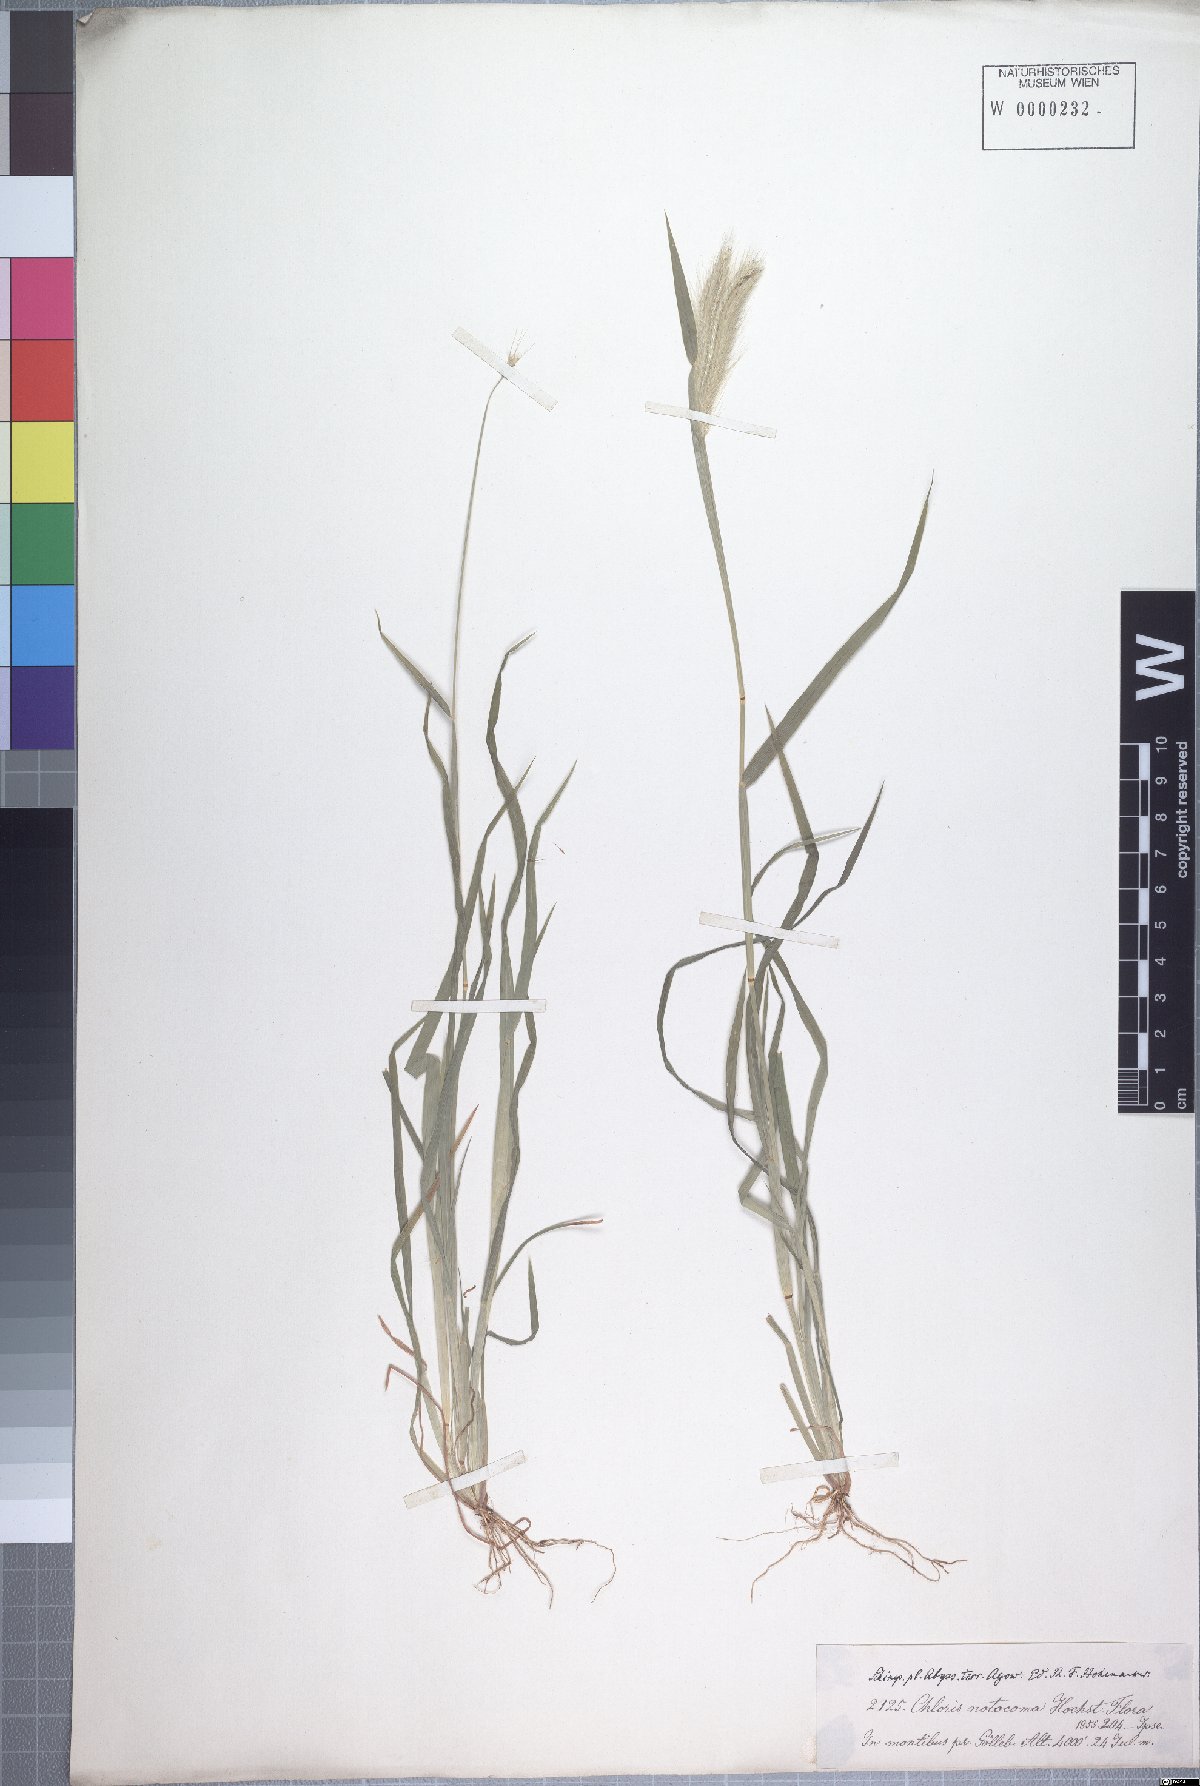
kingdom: Plantae
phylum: Tracheophyta
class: Liliopsida
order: Poales
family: Poaceae
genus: Chloris
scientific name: Chloris virgata
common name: Feathery rhodes-grass
